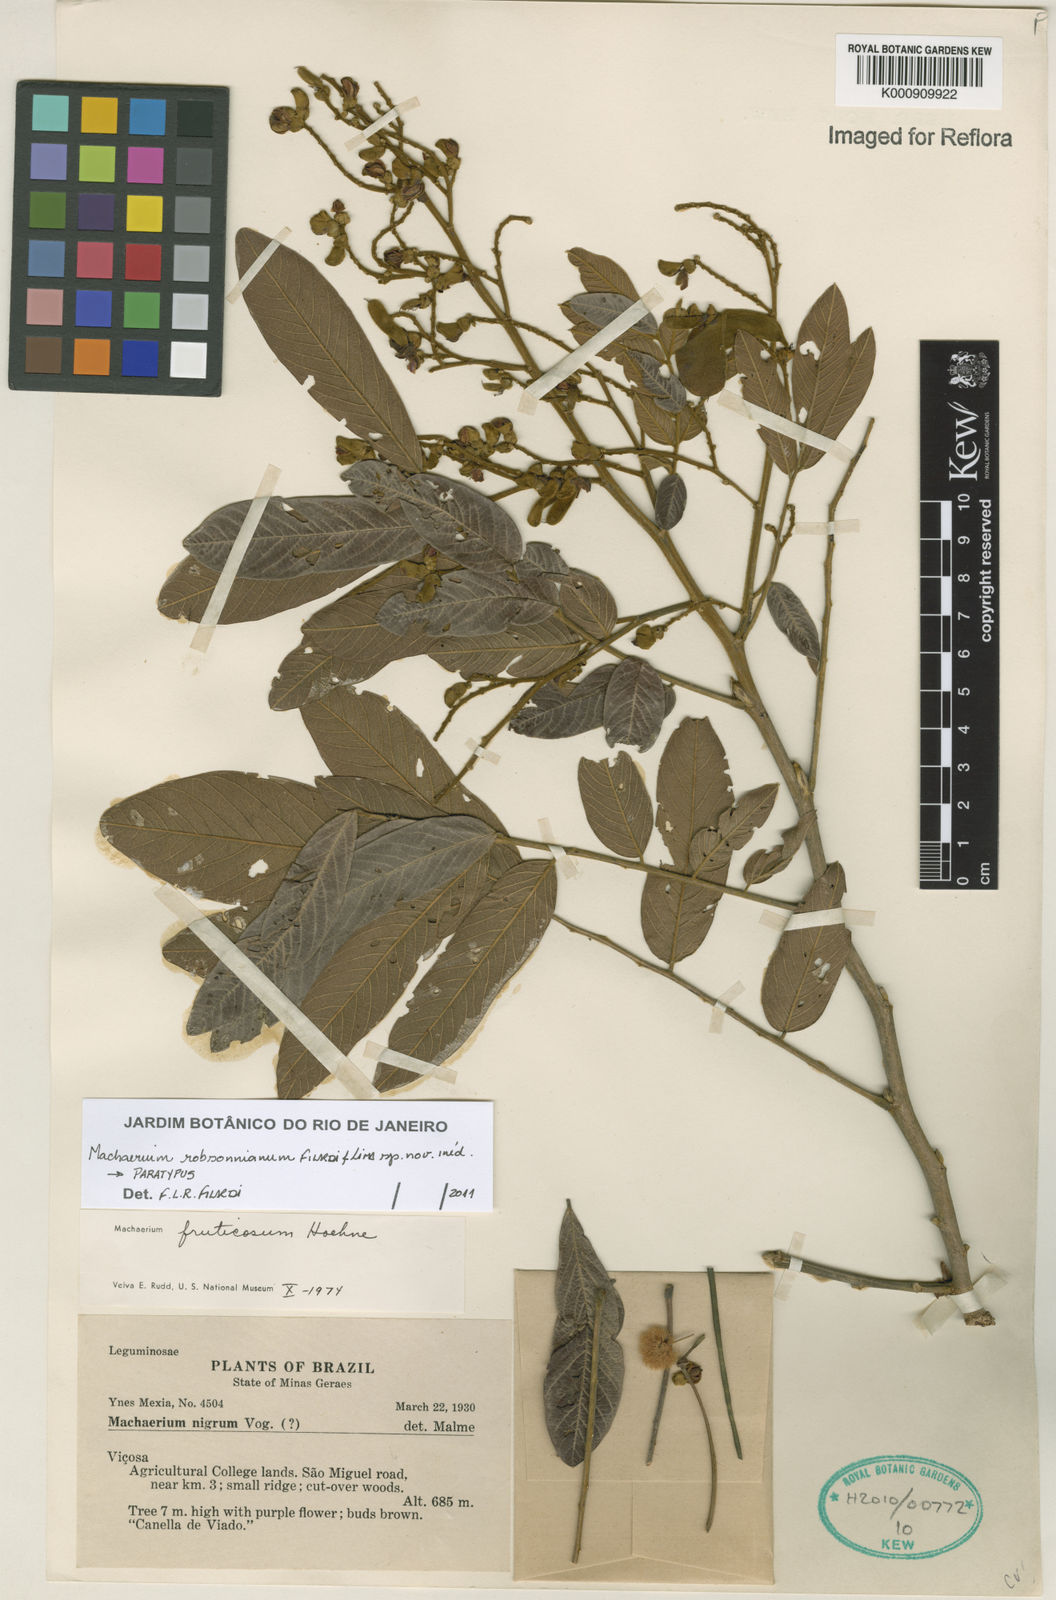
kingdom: Plantae
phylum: Tracheophyta
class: Magnoliopsida
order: Fabales
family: Fabaceae
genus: Machaerium
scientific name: Machaerium robsonianum
